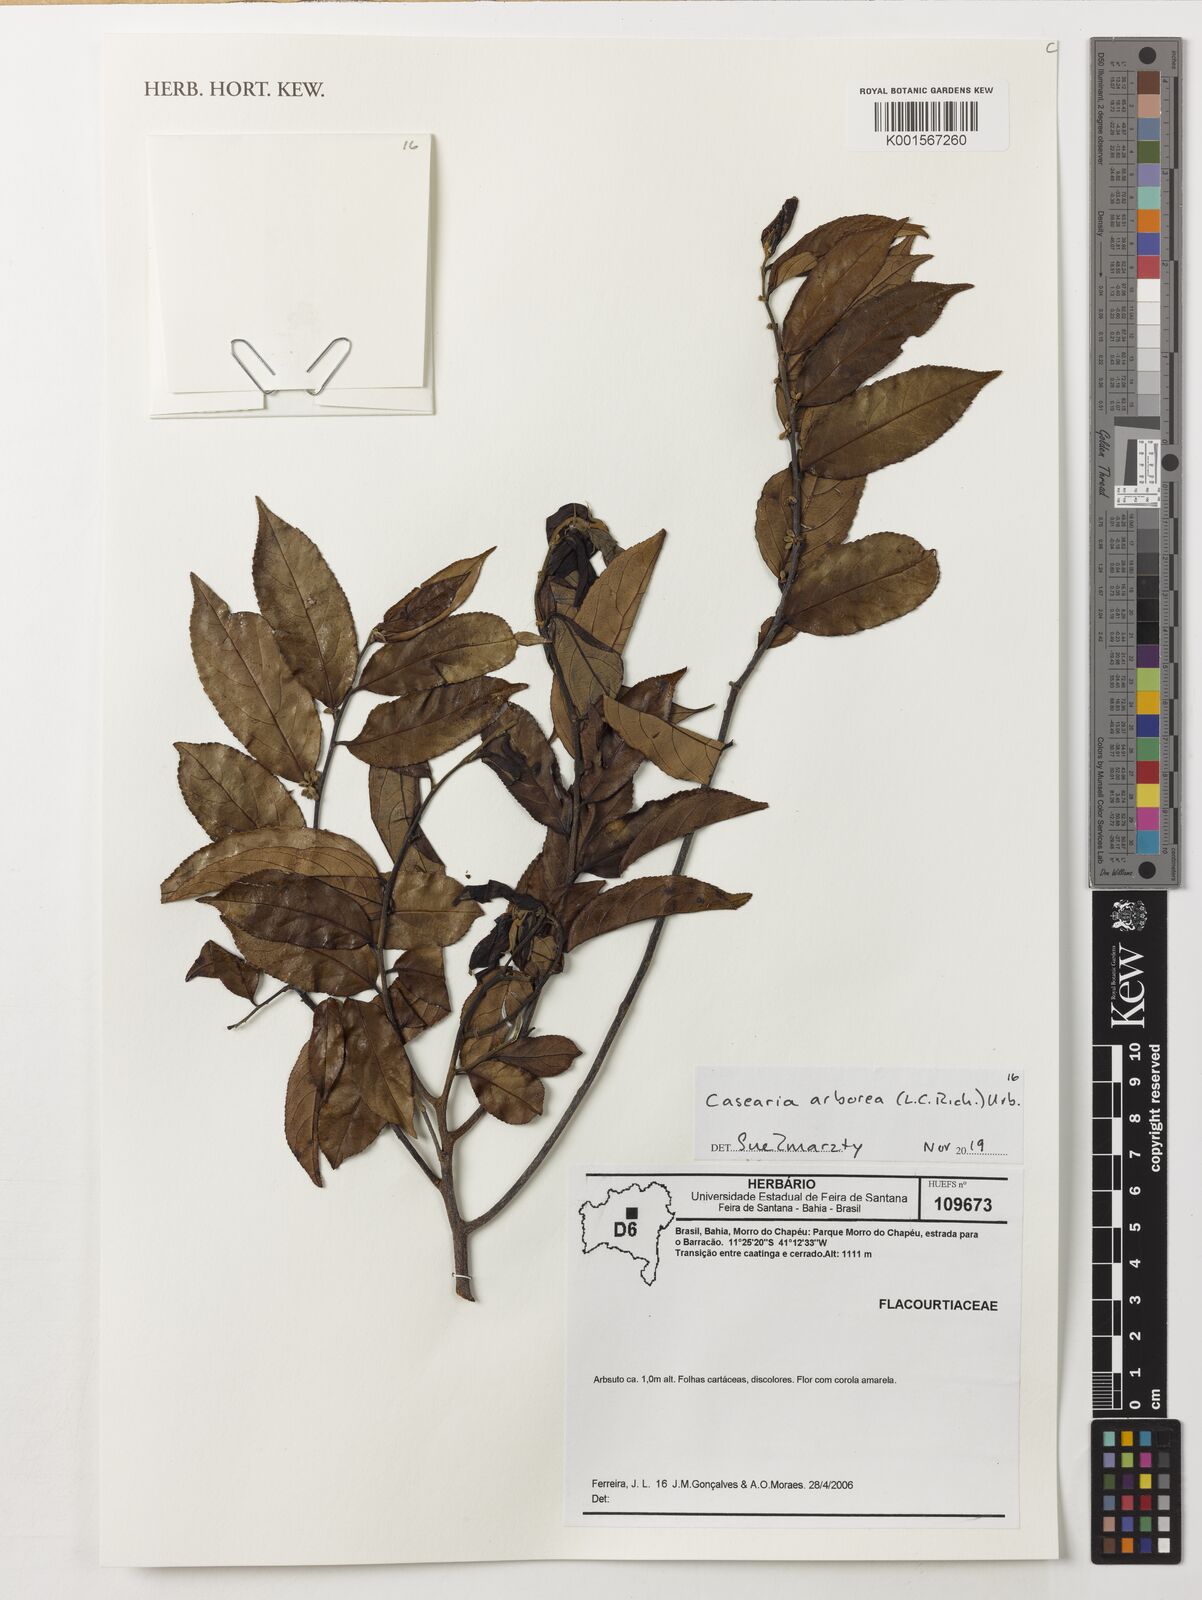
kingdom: Plantae
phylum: Tracheophyta
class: Magnoliopsida
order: Malpighiales
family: Salicaceae
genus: Casearia
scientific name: Casearia arborea
